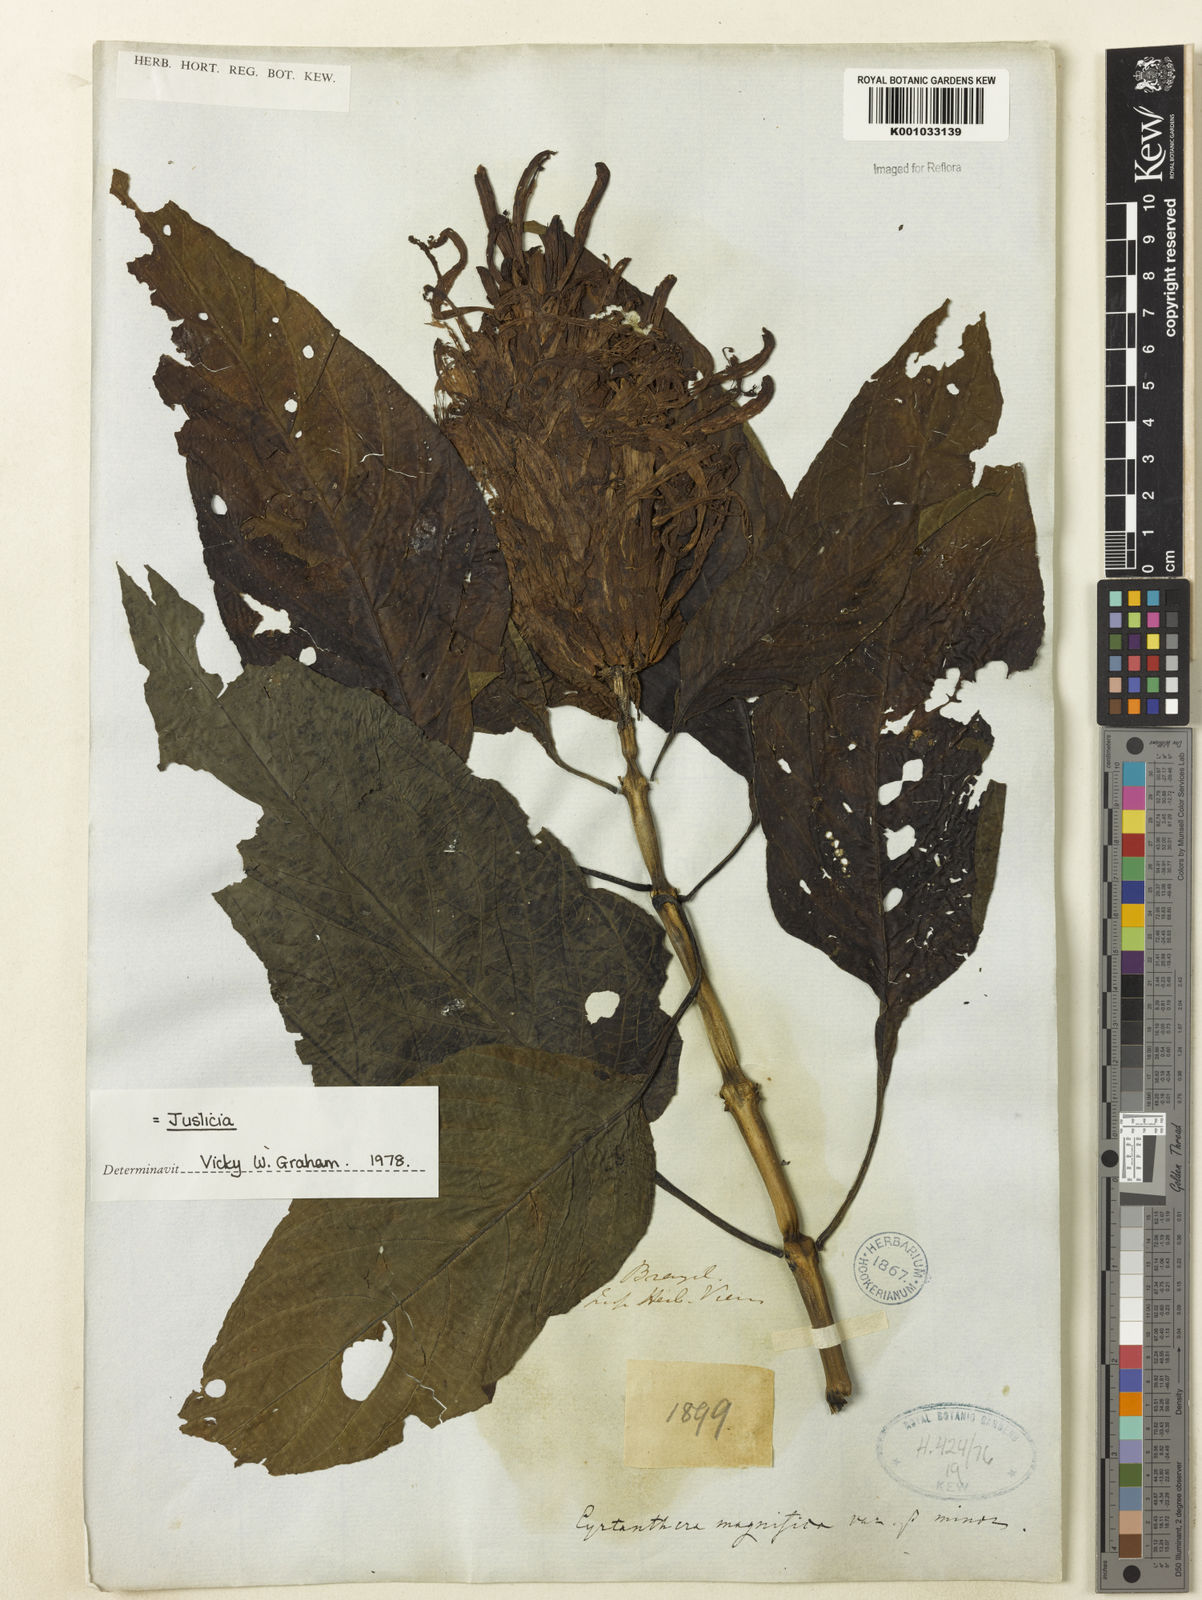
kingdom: Plantae
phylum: Tracheophyta
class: Magnoliopsida
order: Lamiales
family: Acanthaceae
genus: Justicia
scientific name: Justicia carnea
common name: Brazilian-plume
